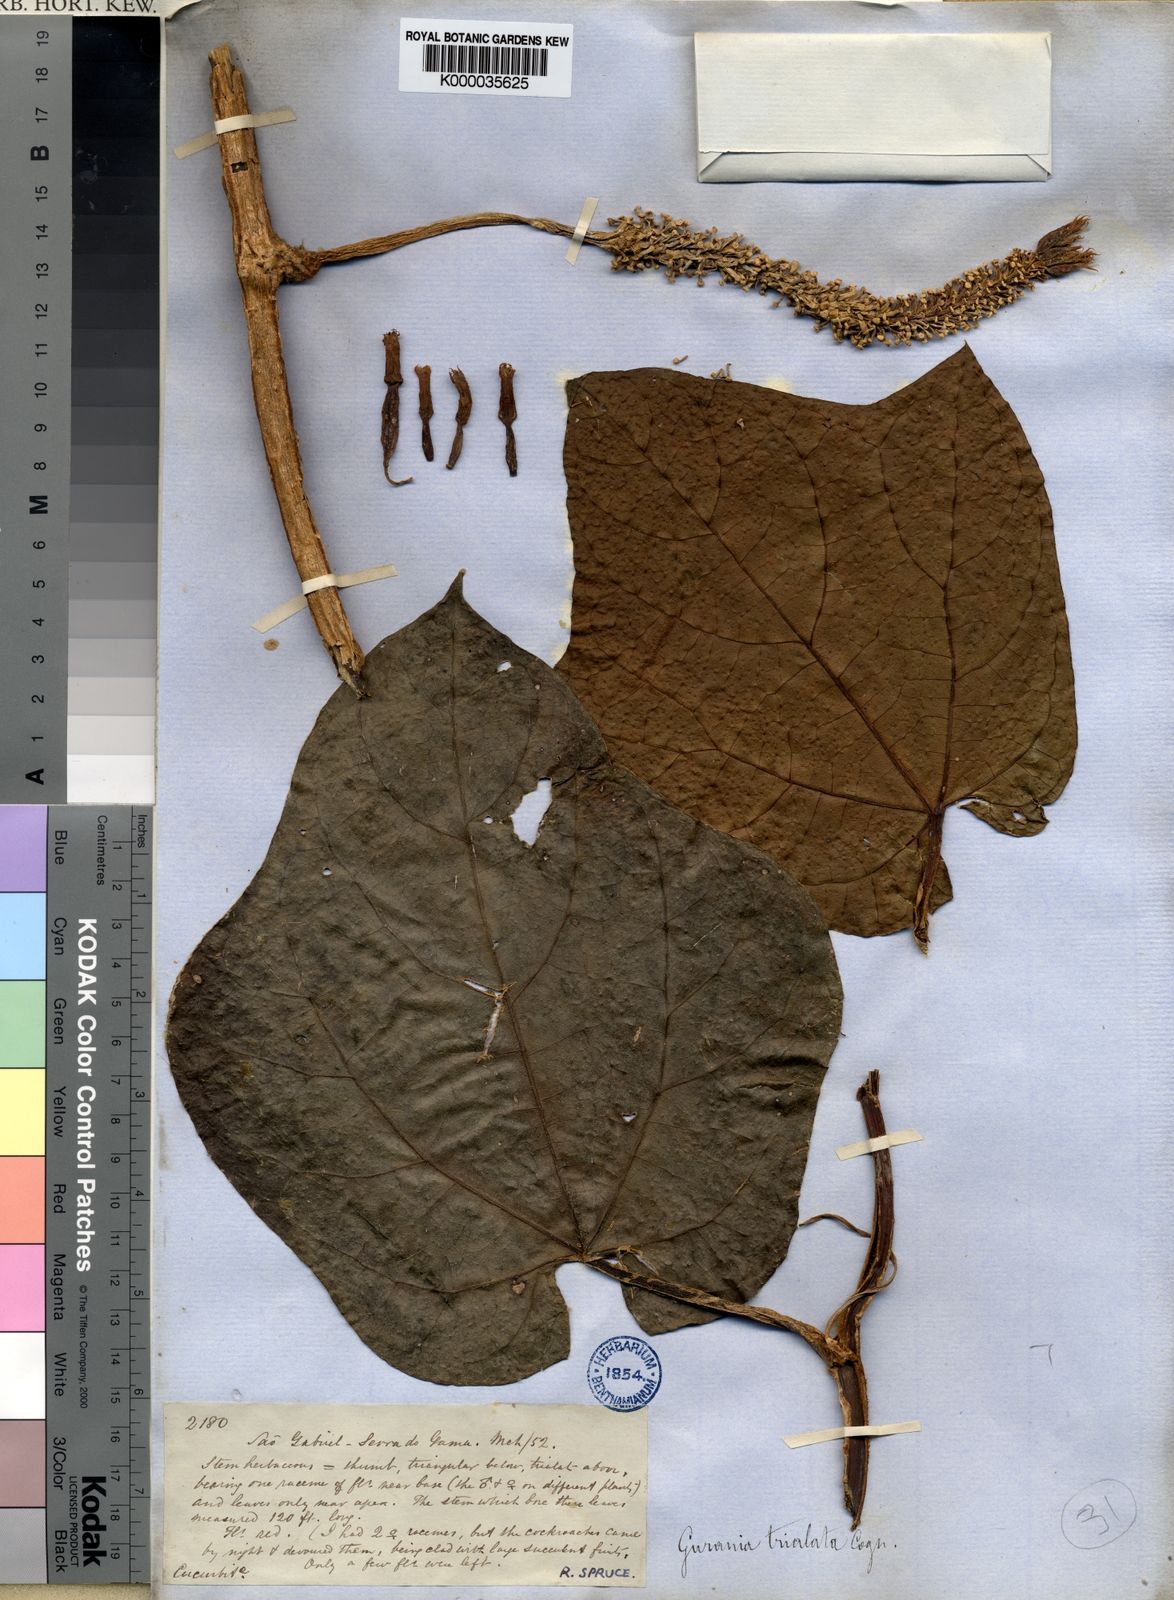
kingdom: Plantae
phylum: Tracheophyta
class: Magnoliopsida
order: Cucurbitales
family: Cucurbitaceae
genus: Gurania
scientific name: Gurania trialata
